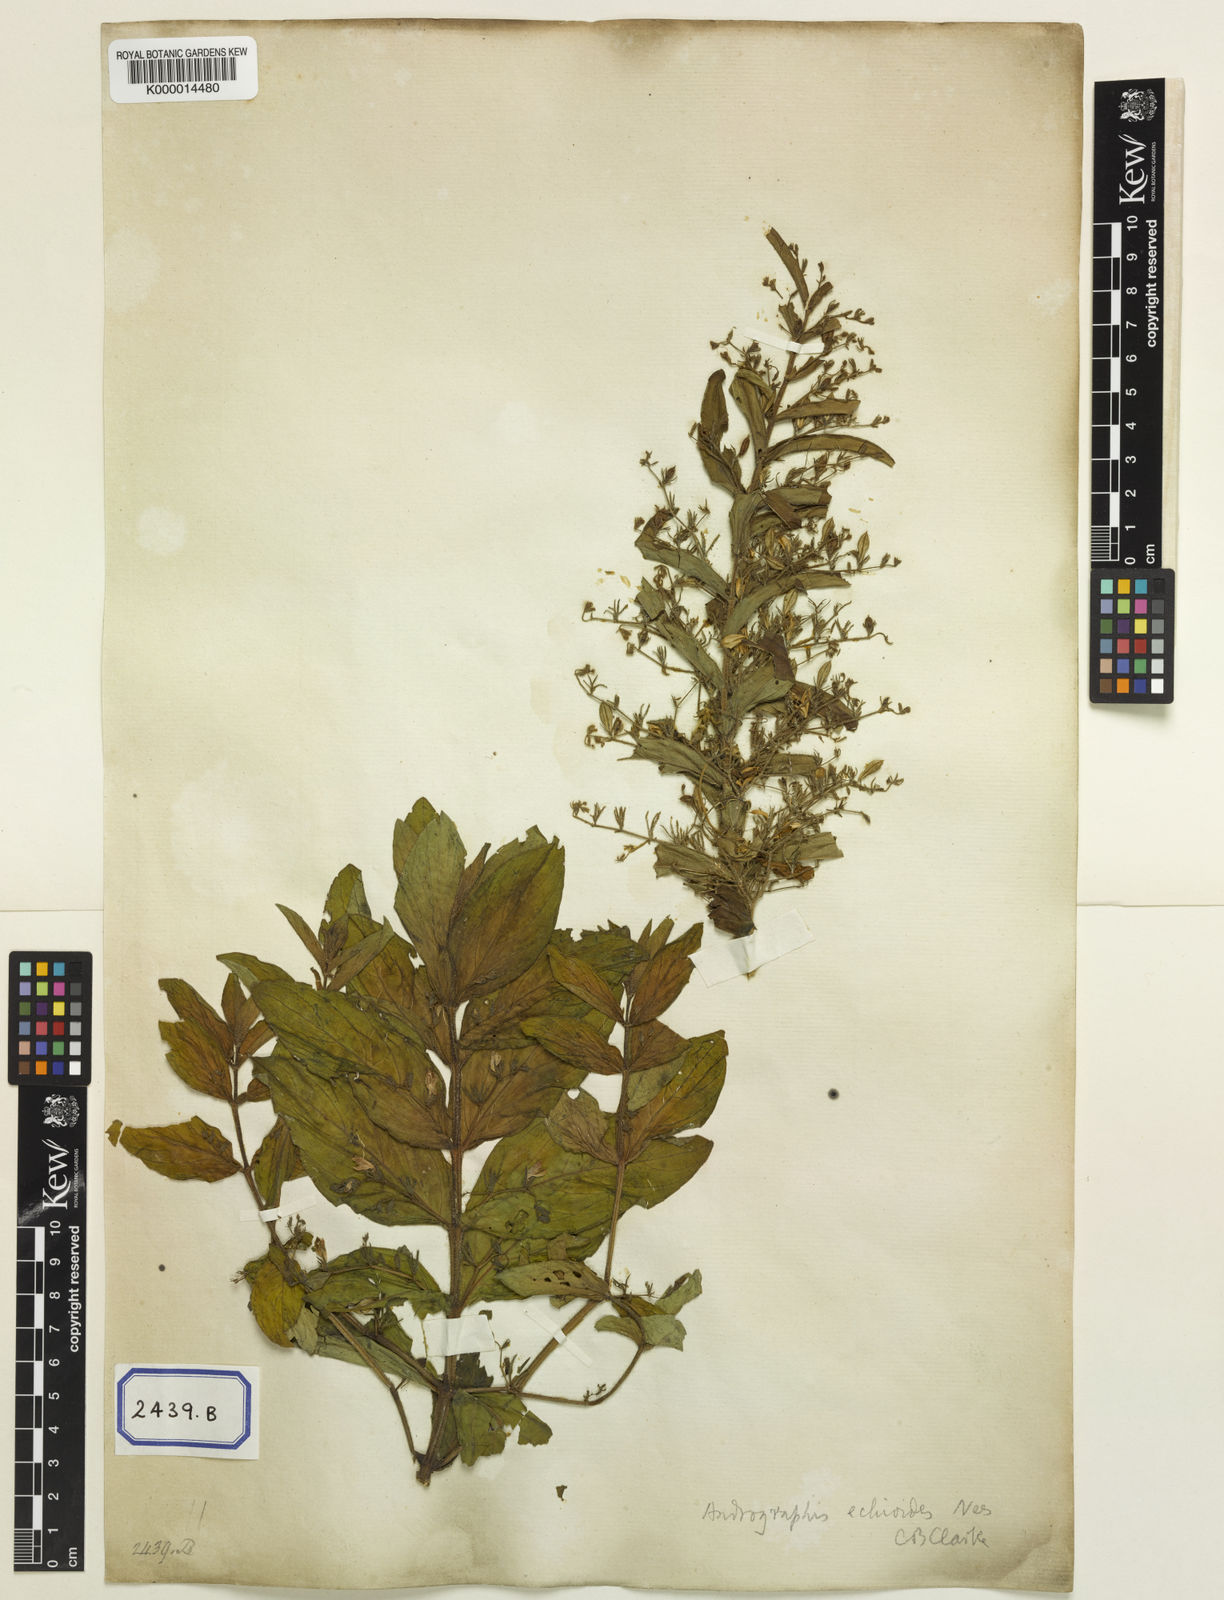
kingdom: Plantae
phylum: Tracheophyta
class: Magnoliopsida
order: Lamiales
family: Acanthaceae
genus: Andrographis
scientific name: Andrographis echioides
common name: False waterwillow
